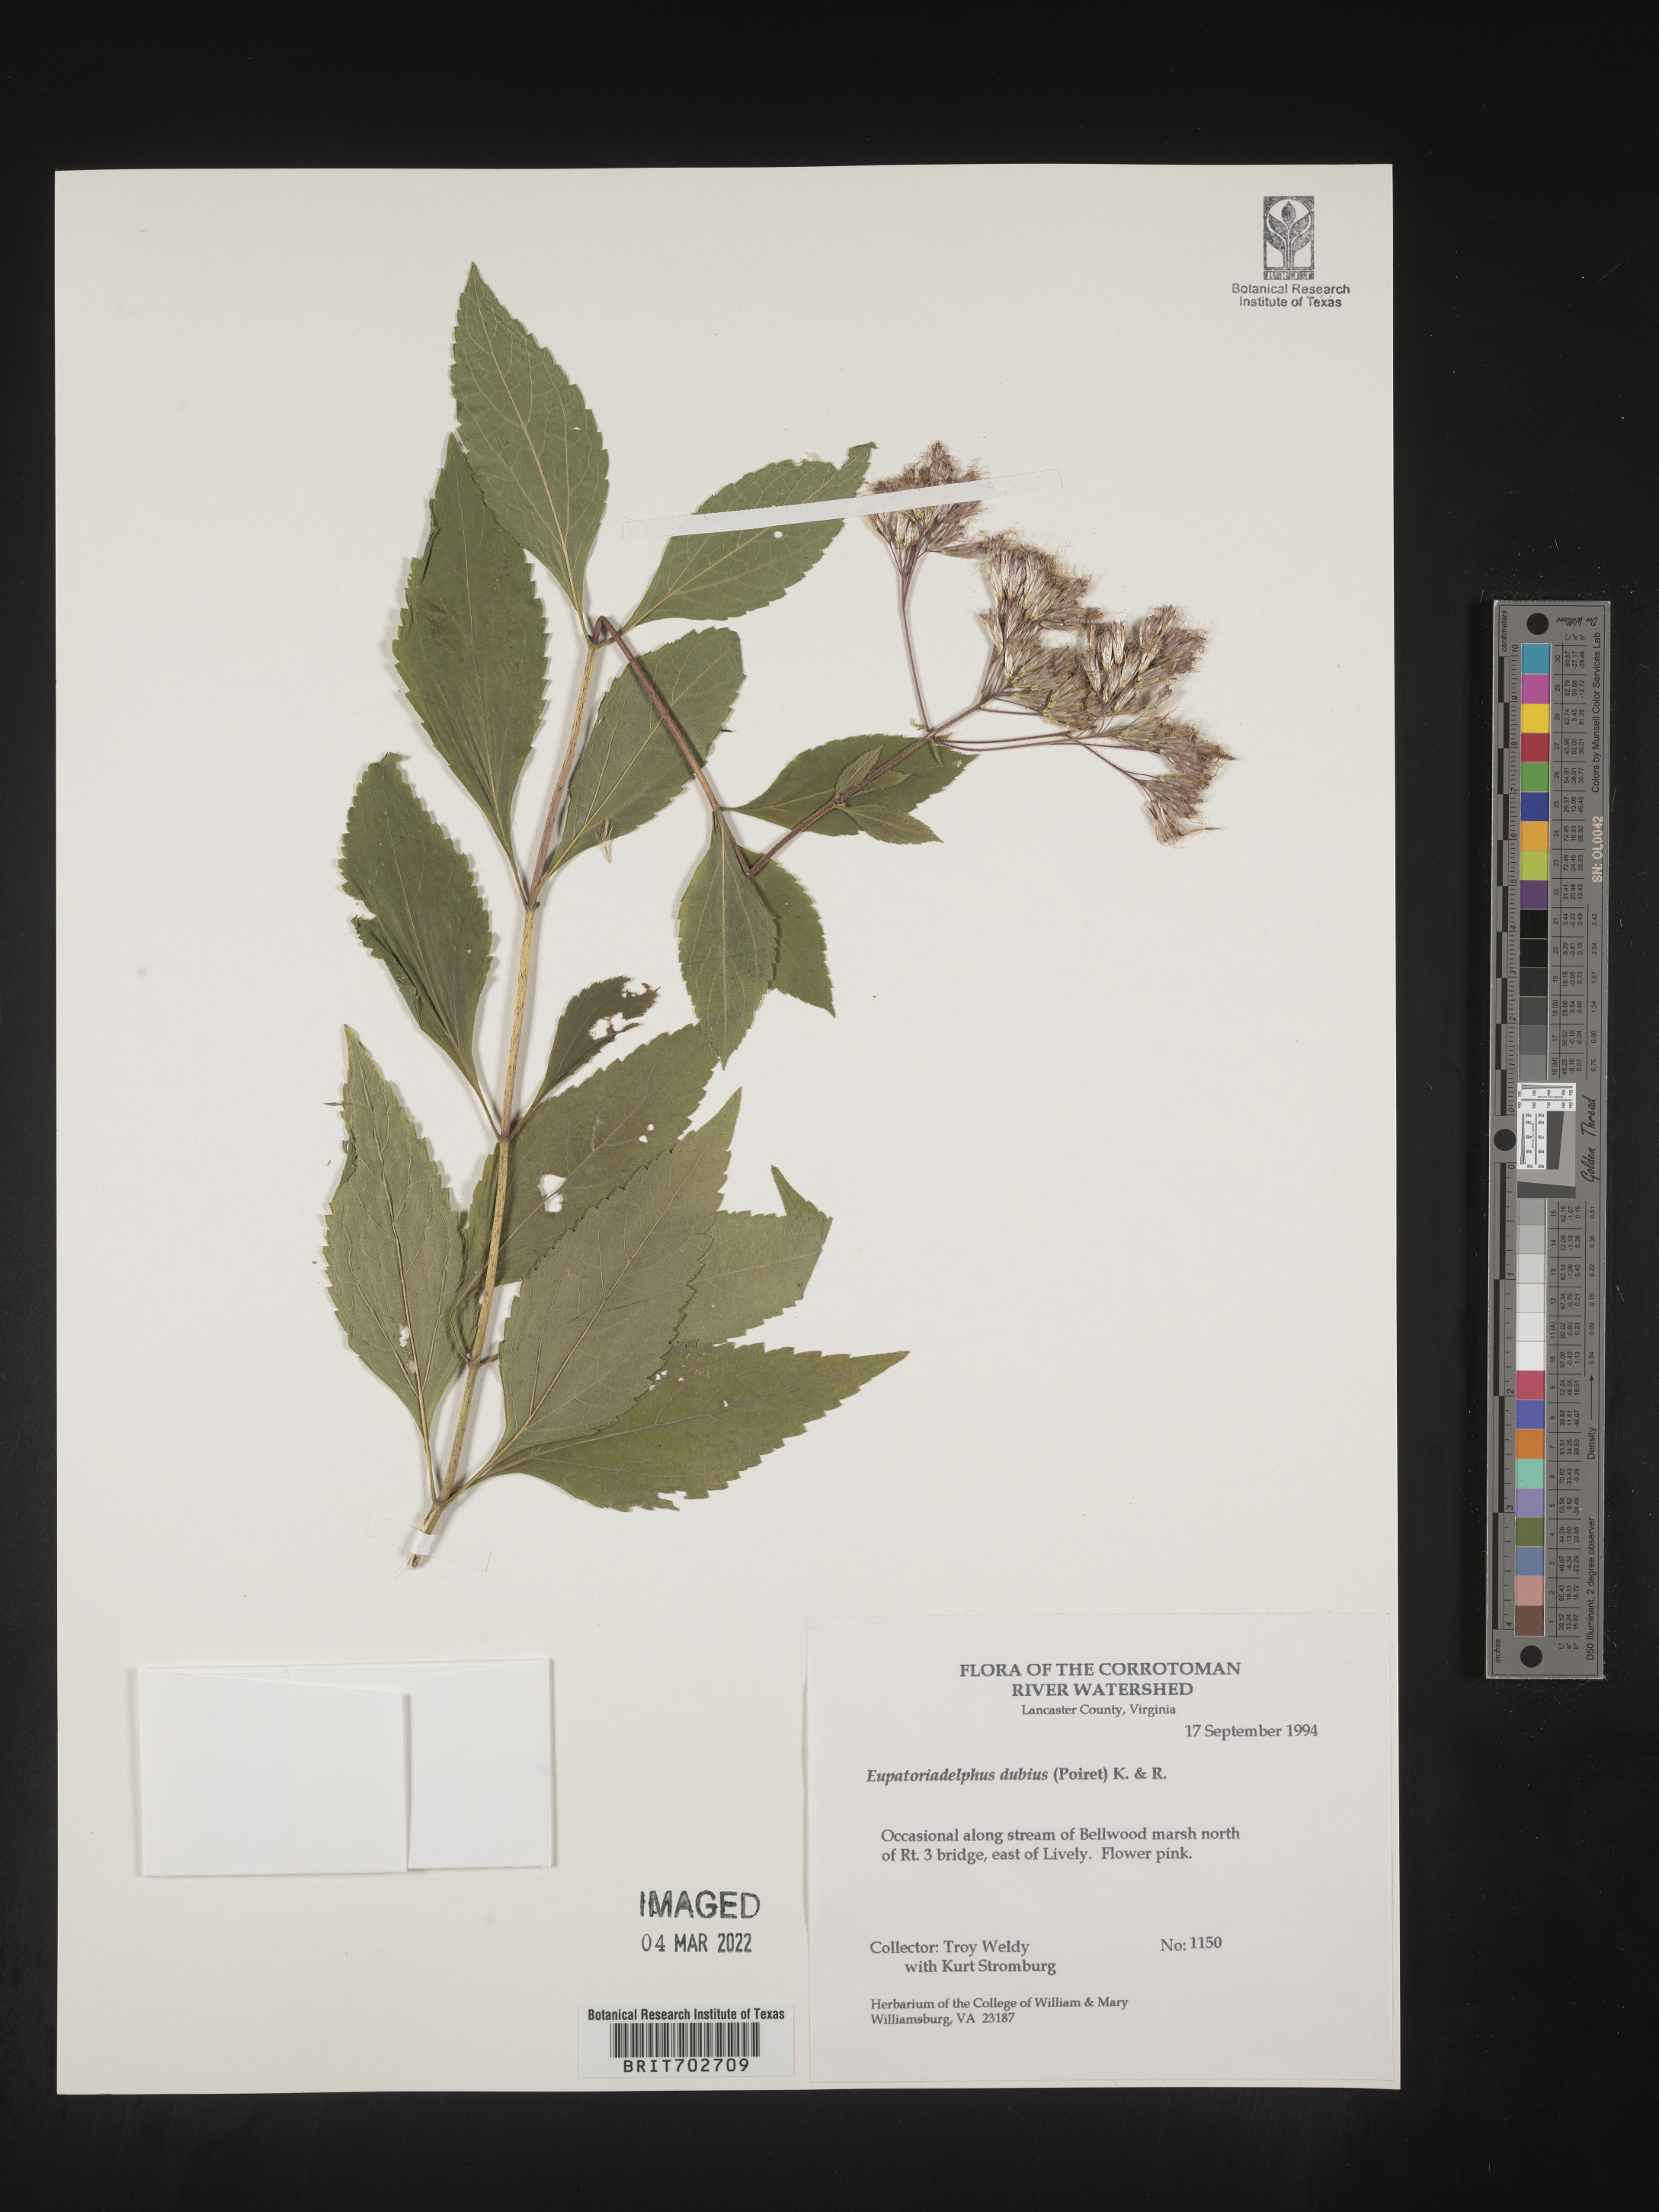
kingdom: Plantae
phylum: Tracheophyta
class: Magnoliopsida
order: Asterales
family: Asteraceae
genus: Eutrochium
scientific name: Eutrochium
